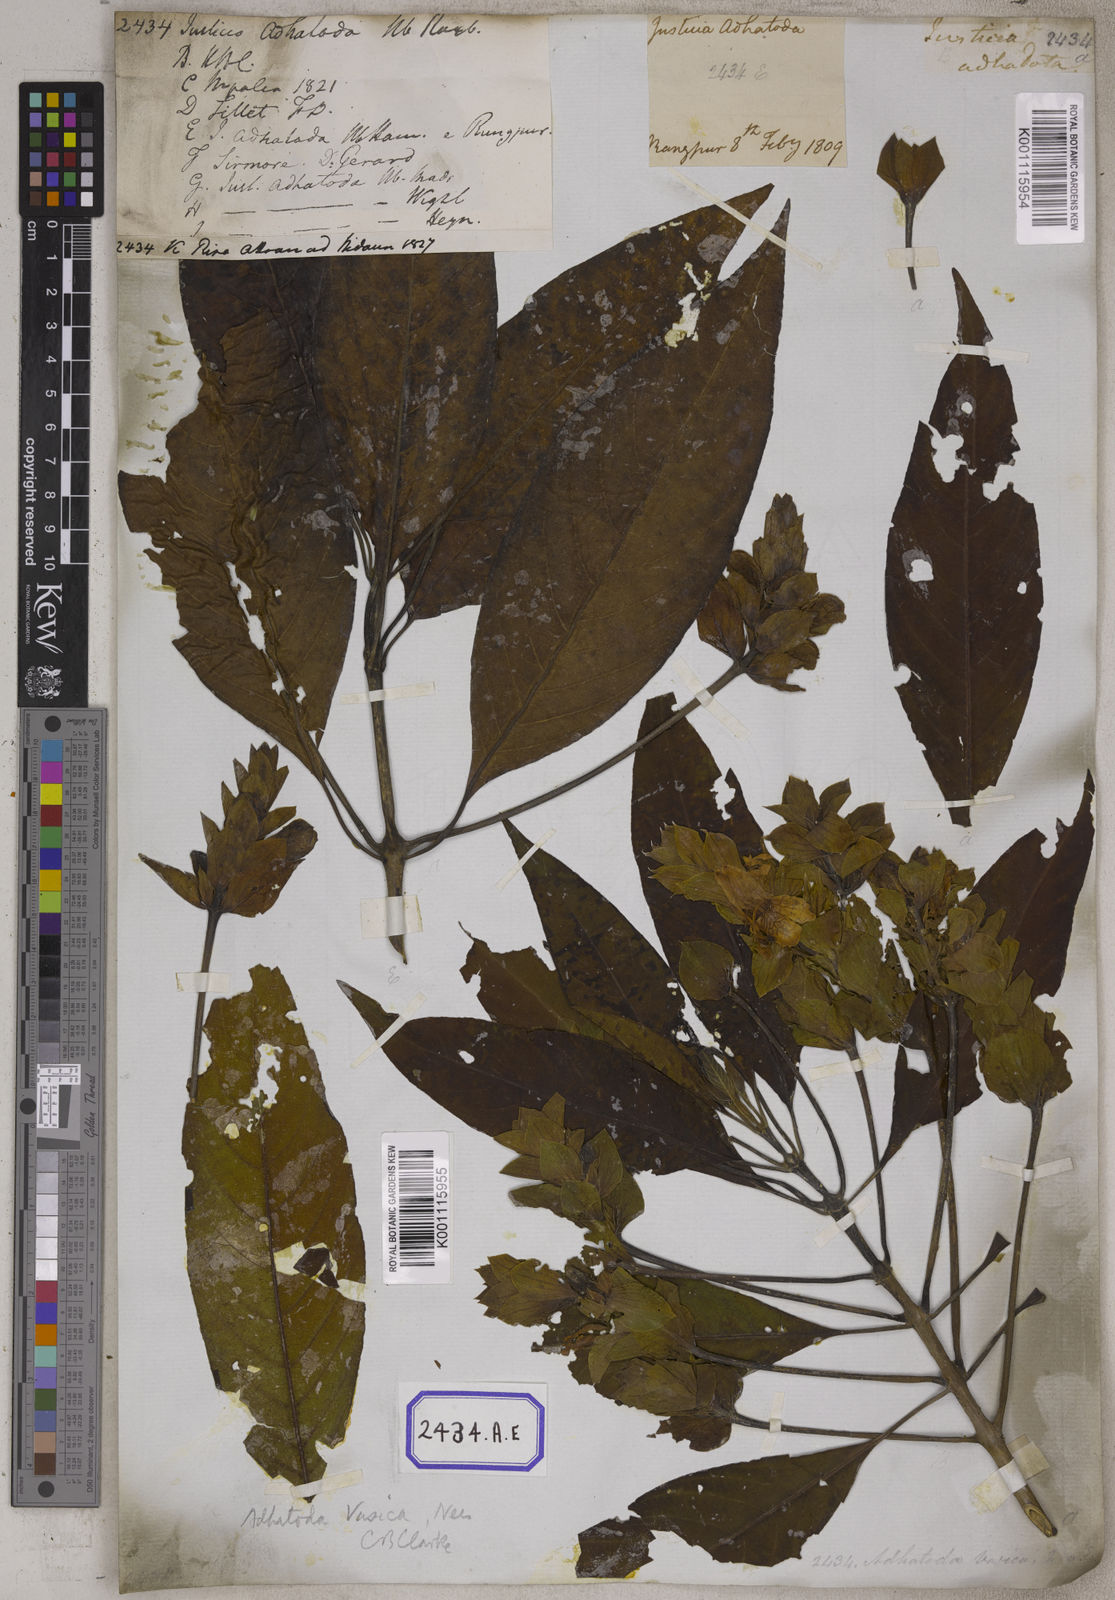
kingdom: Plantae
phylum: Tracheophyta
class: Magnoliopsida
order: Lamiales
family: Acanthaceae
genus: Justicia
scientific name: Justicia adhatoda
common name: Malabar nut
